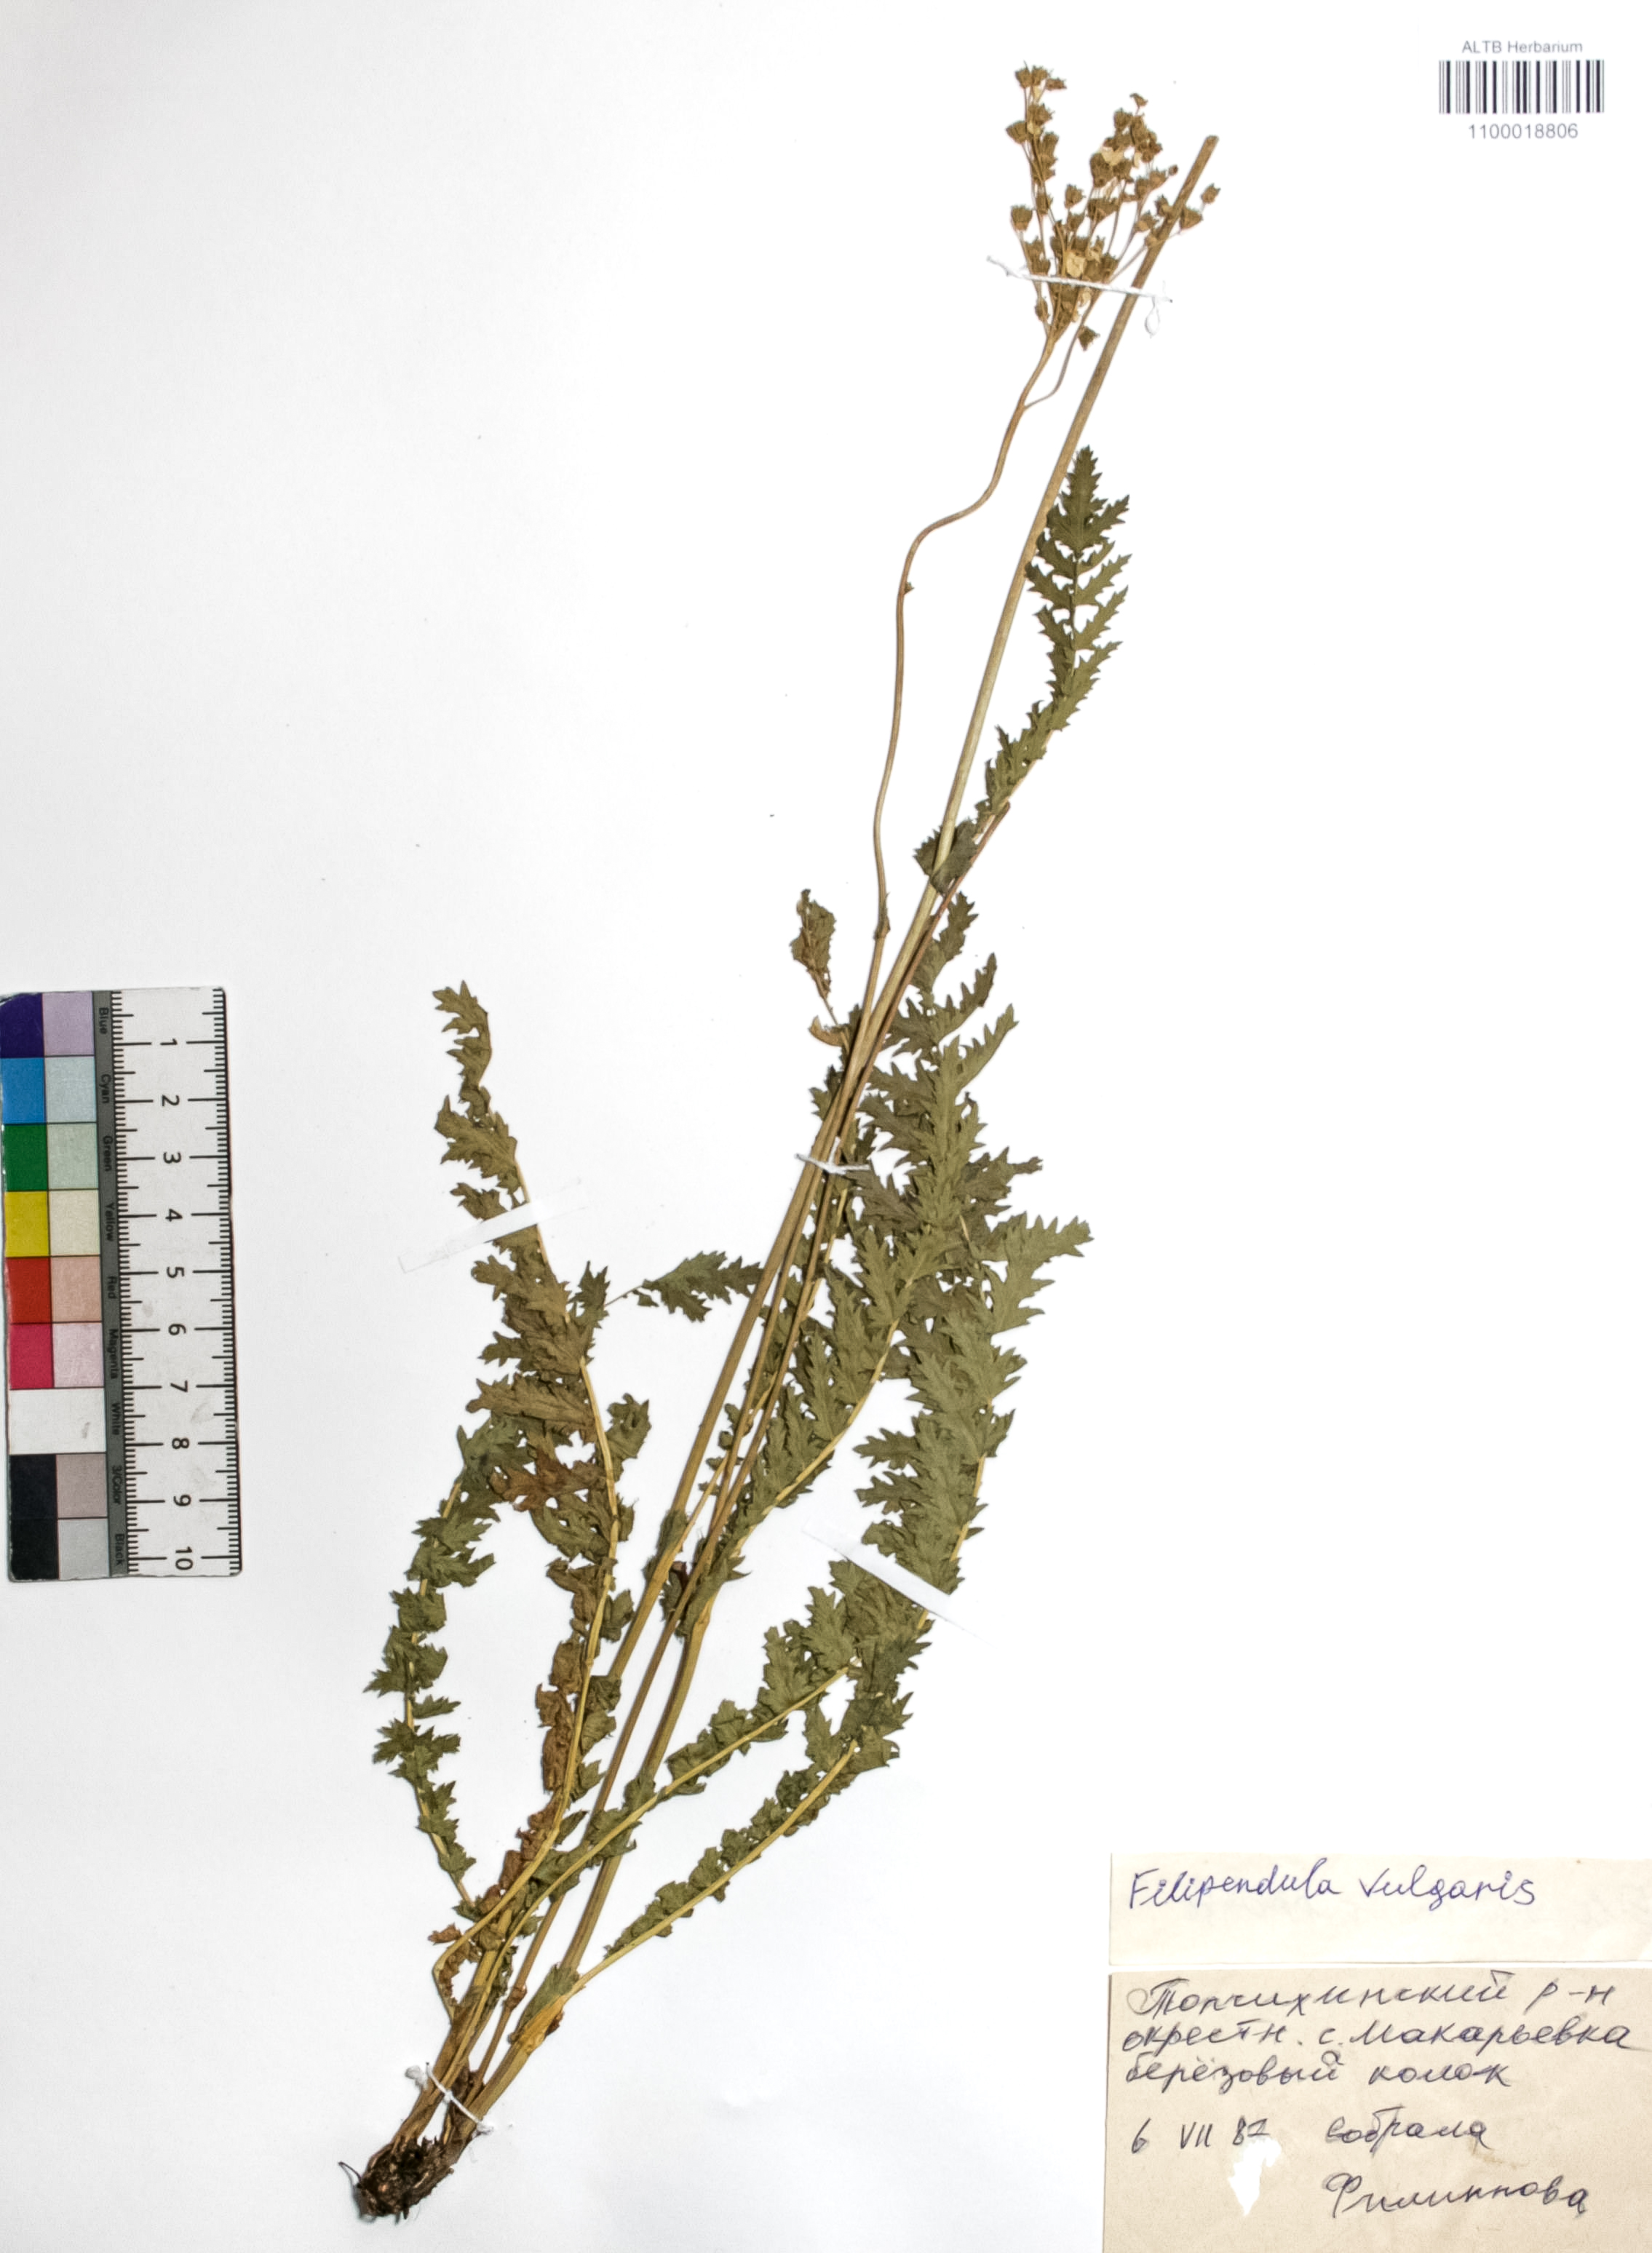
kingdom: Plantae
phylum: Tracheophyta
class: Magnoliopsida
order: Rosales
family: Rosaceae
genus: Filipendula
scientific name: Filipendula vulgaris
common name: Dropwort
